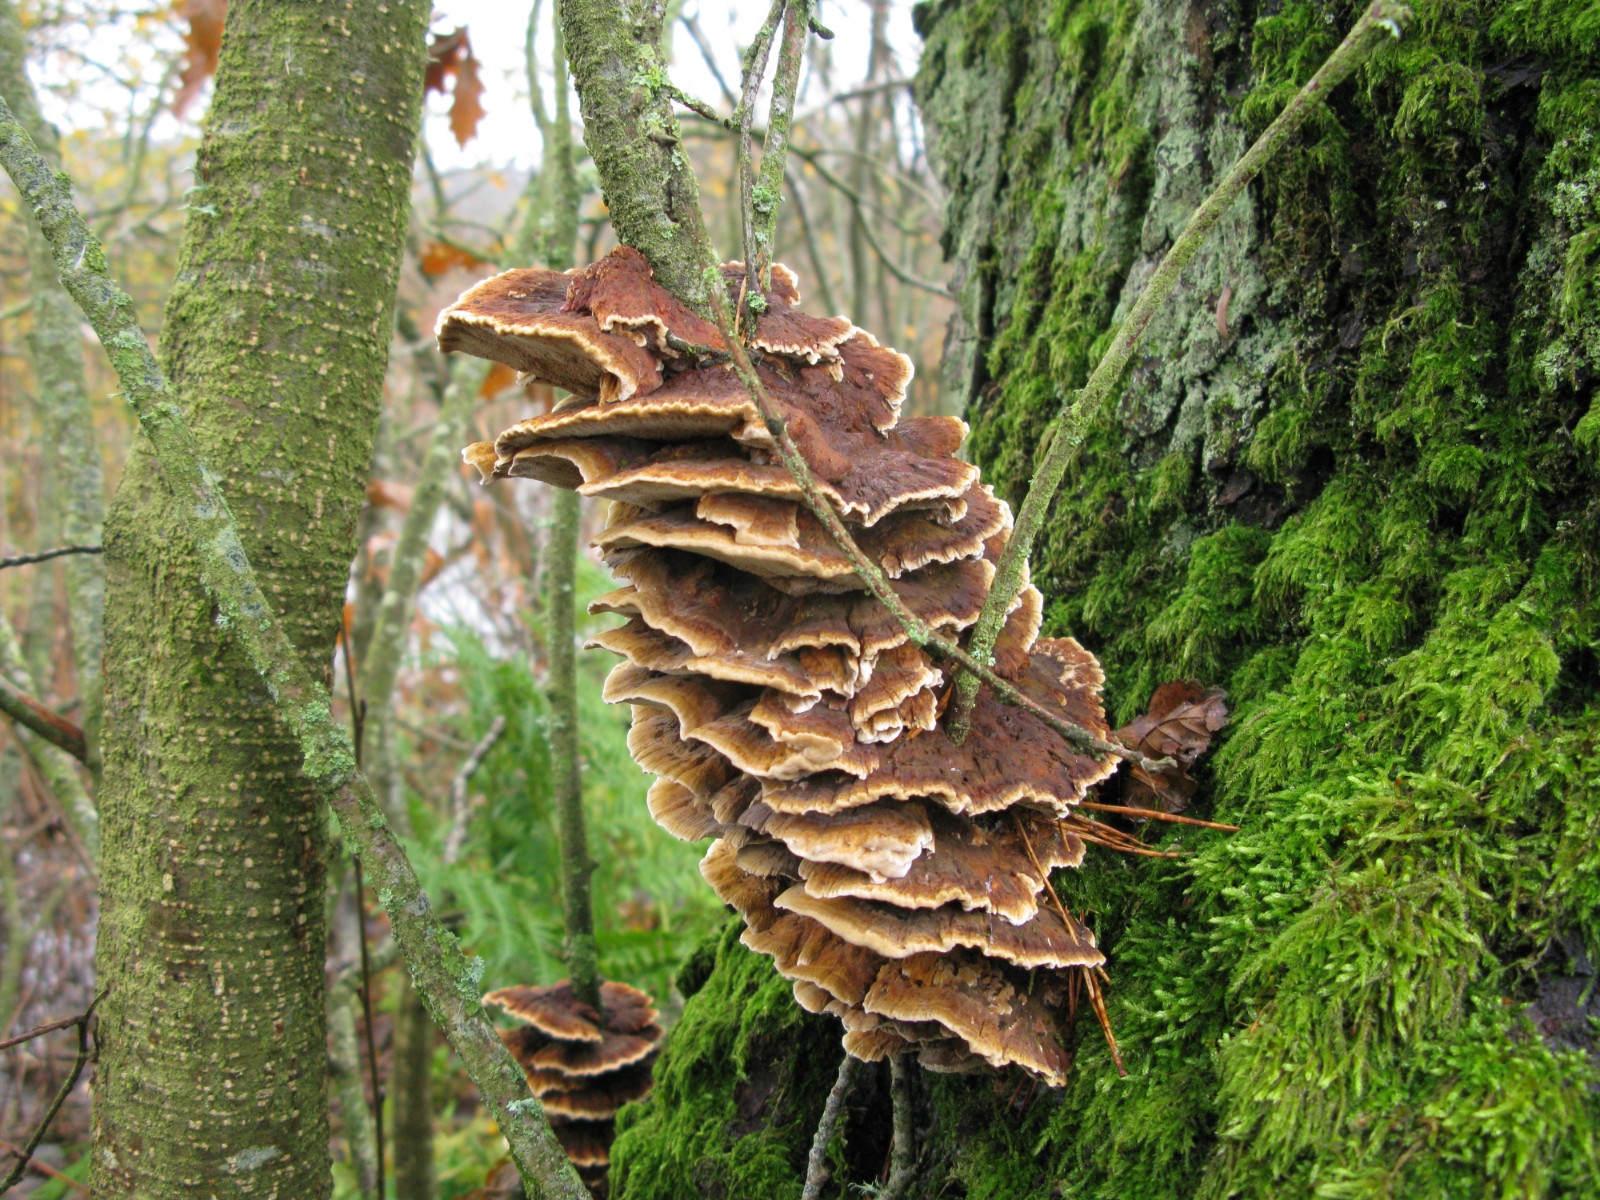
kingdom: Fungi
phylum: Basidiomycota
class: Agaricomycetes
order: Hymenochaetales
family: Hymenochaetaceae
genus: Xanthoporia
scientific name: Xanthoporia radiata
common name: elle-spejlporesvamp
